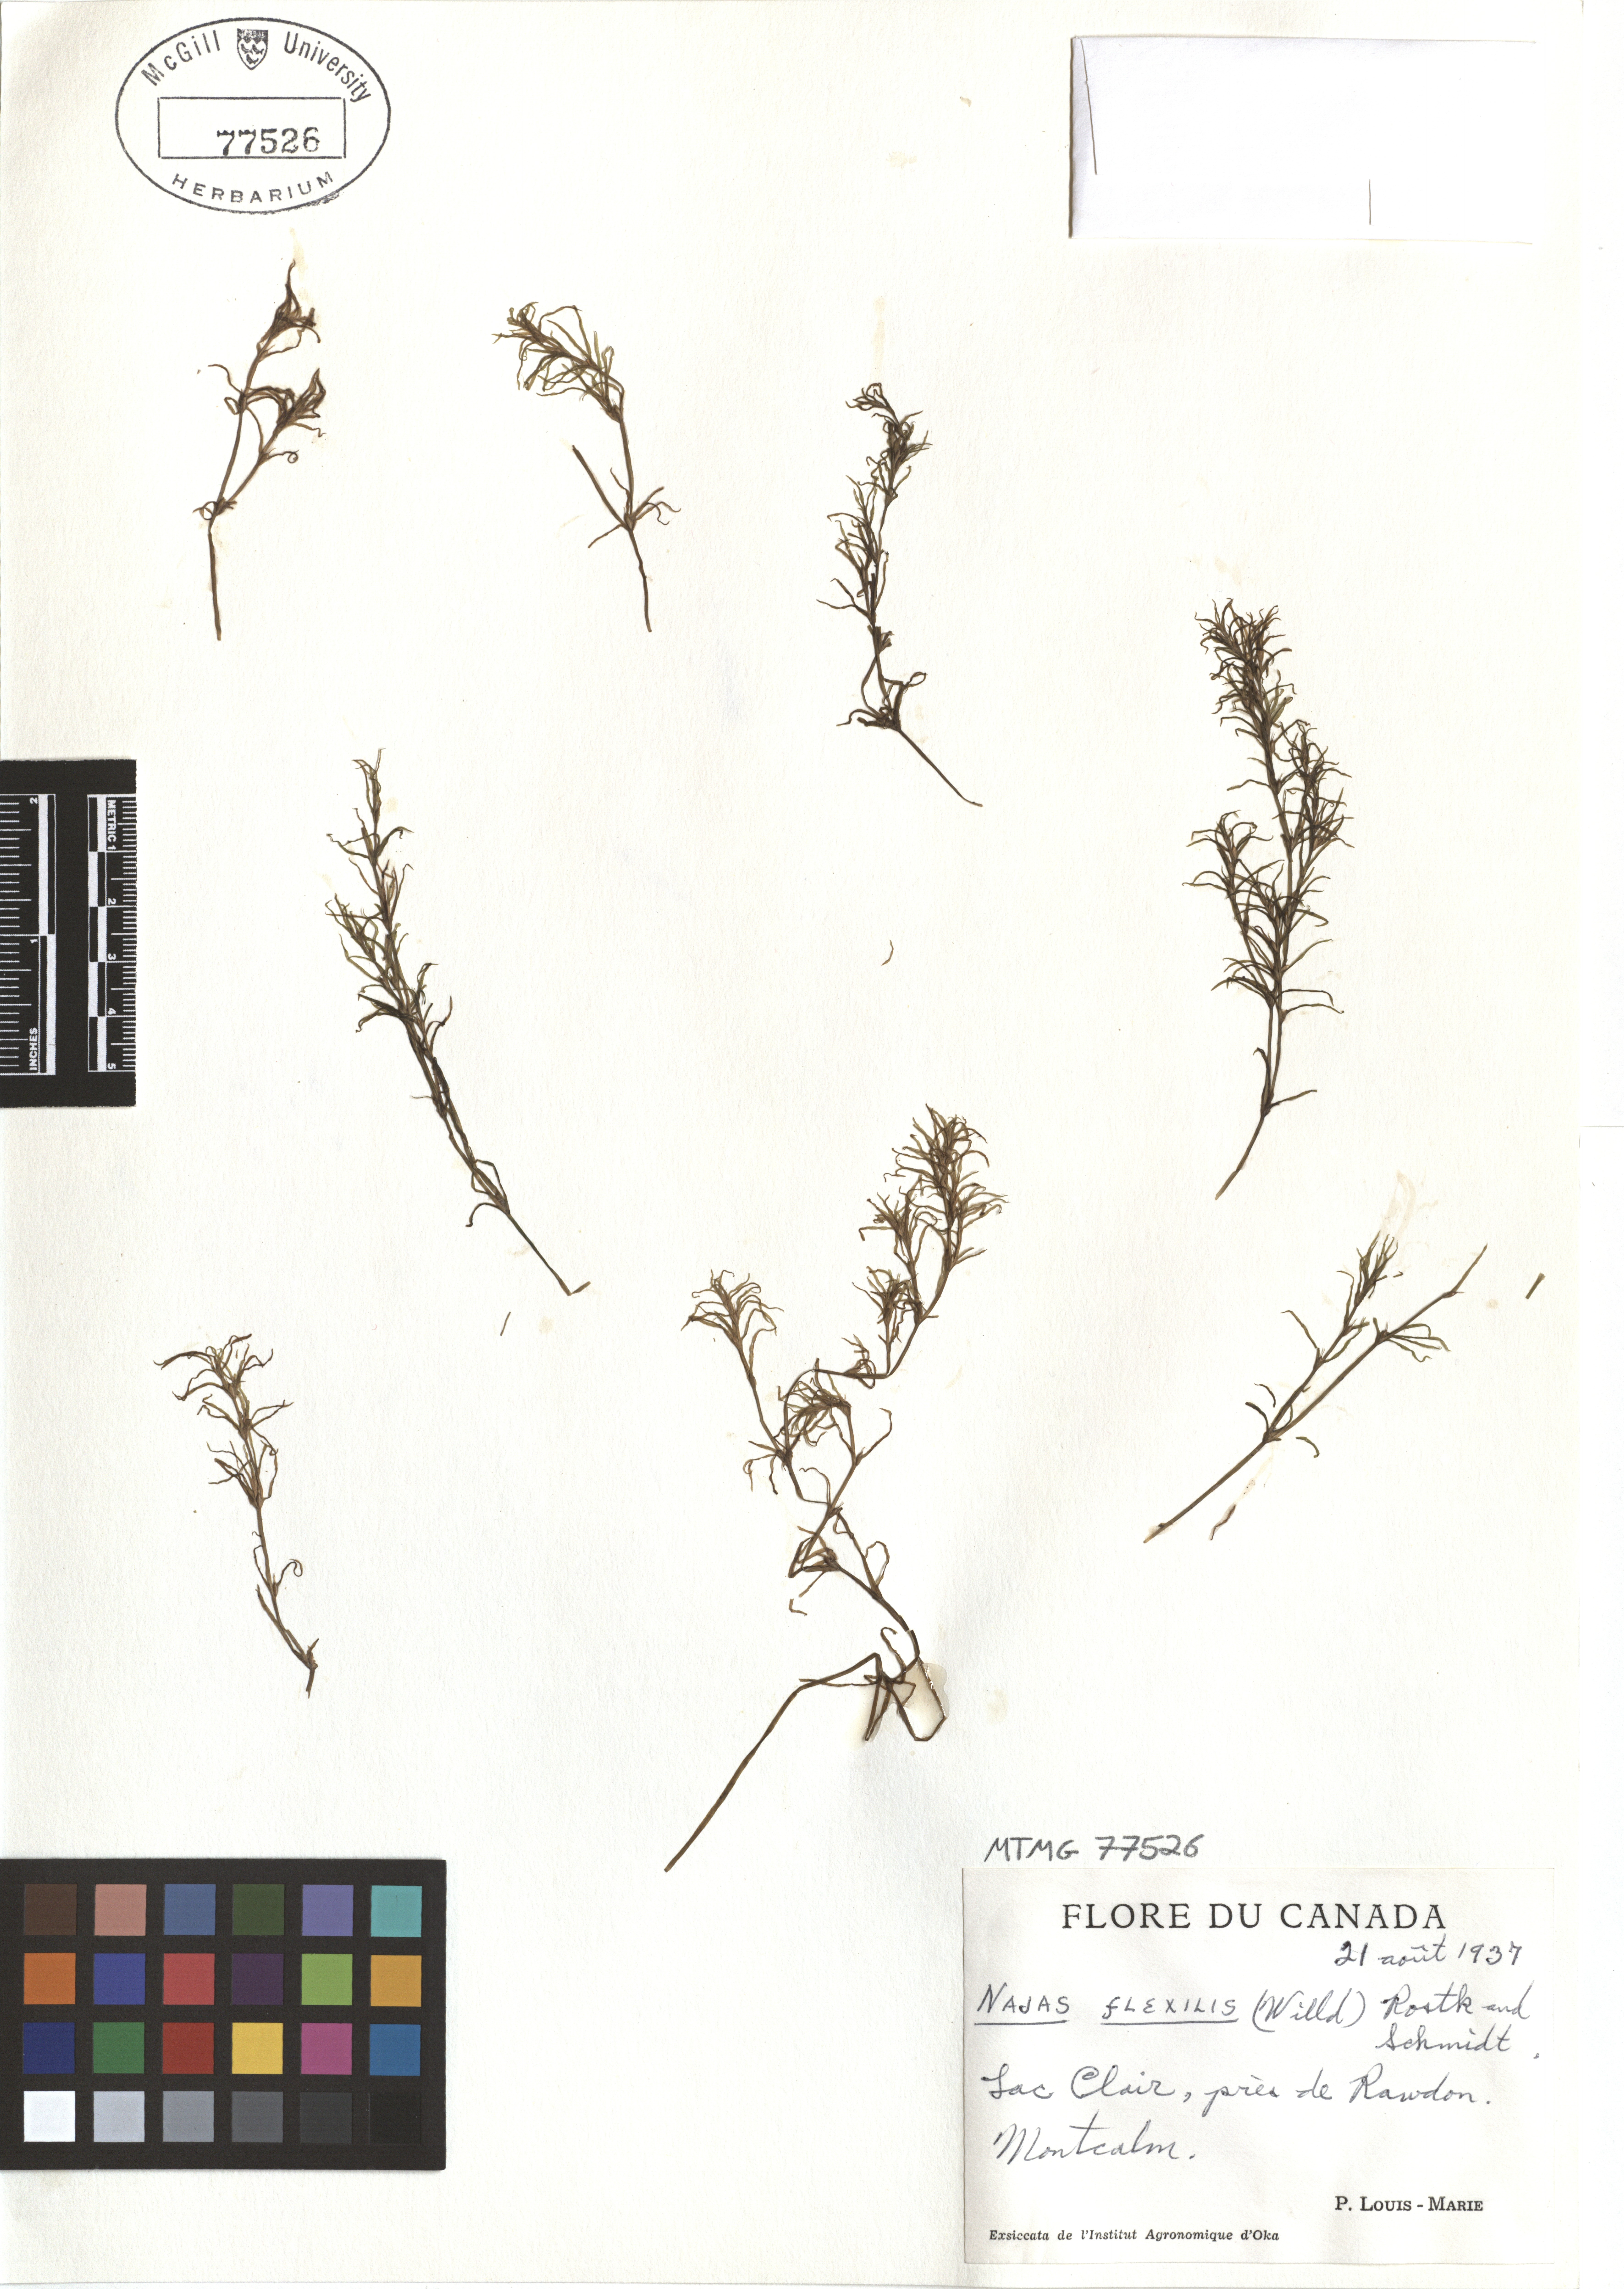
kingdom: Plantae
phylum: Tracheophyta
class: Liliopsida
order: Alismatales
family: Hydrocharitaceae
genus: Najas
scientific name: Najas guadalupensis
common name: Southern naiad
